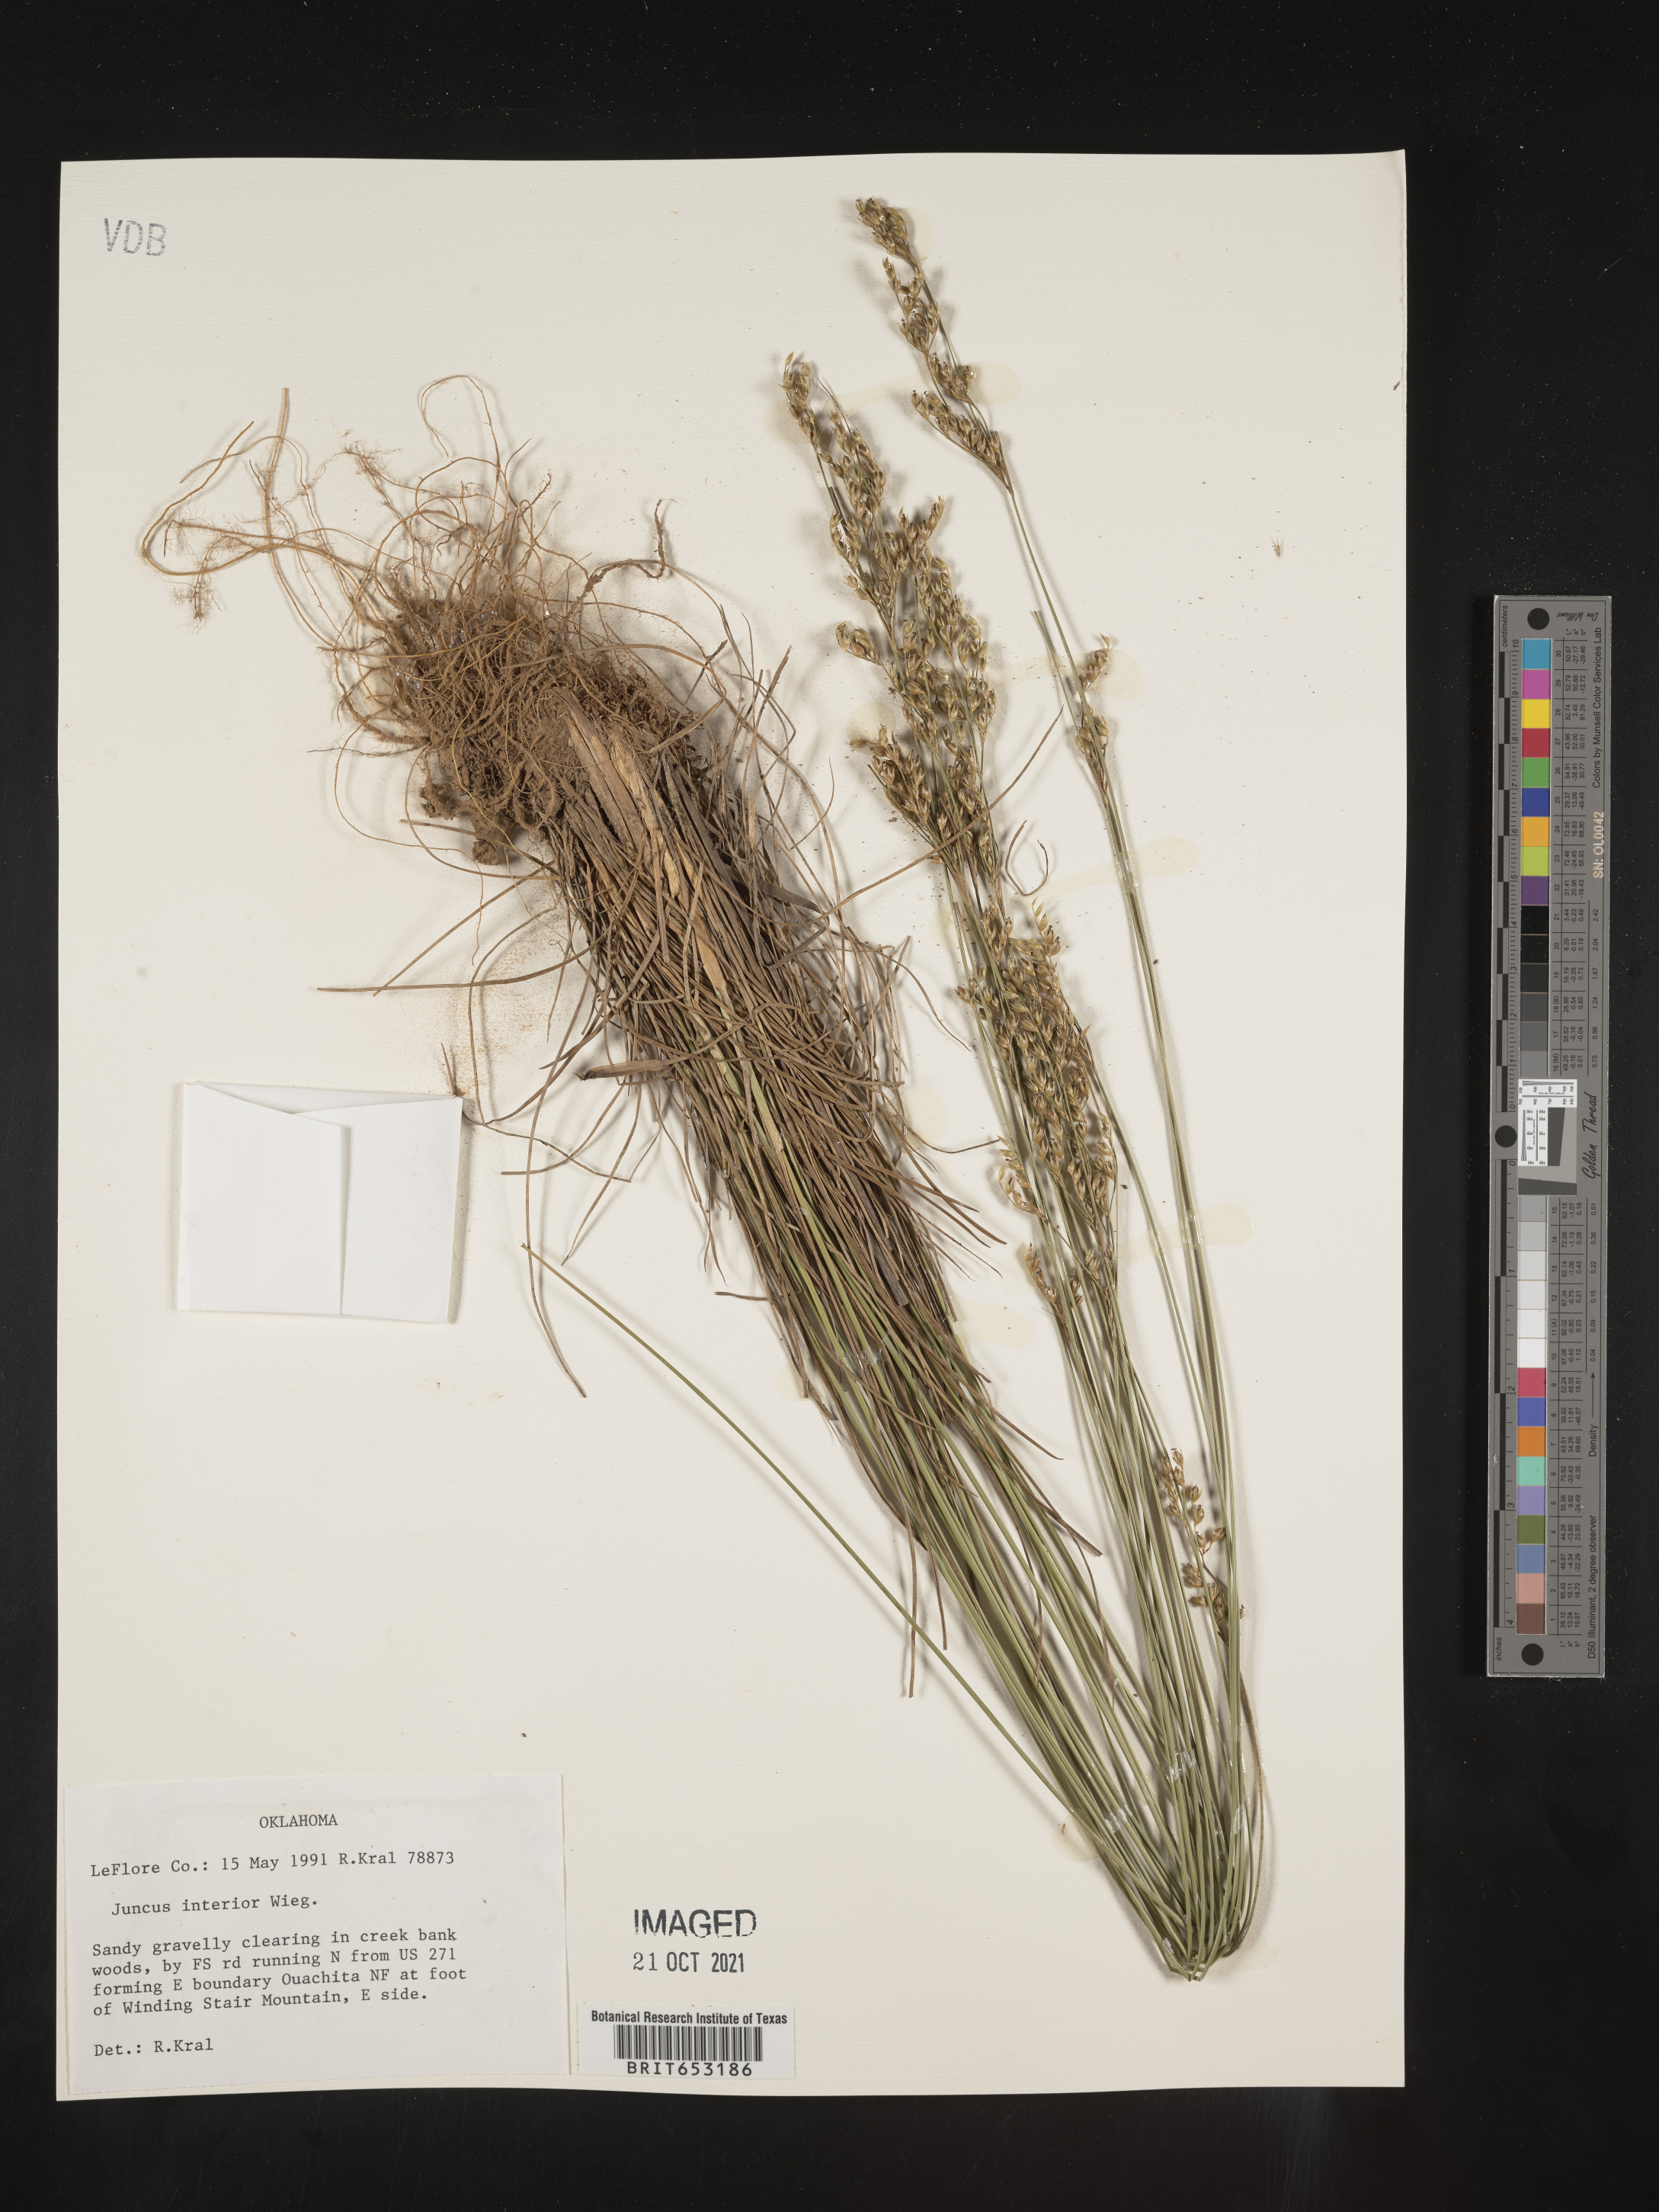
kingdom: Plantae
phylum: Tracheophyta
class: Liliopsida
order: Poales
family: Juncaceae
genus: Juncus
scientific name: Juncus interior
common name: Interior rush
